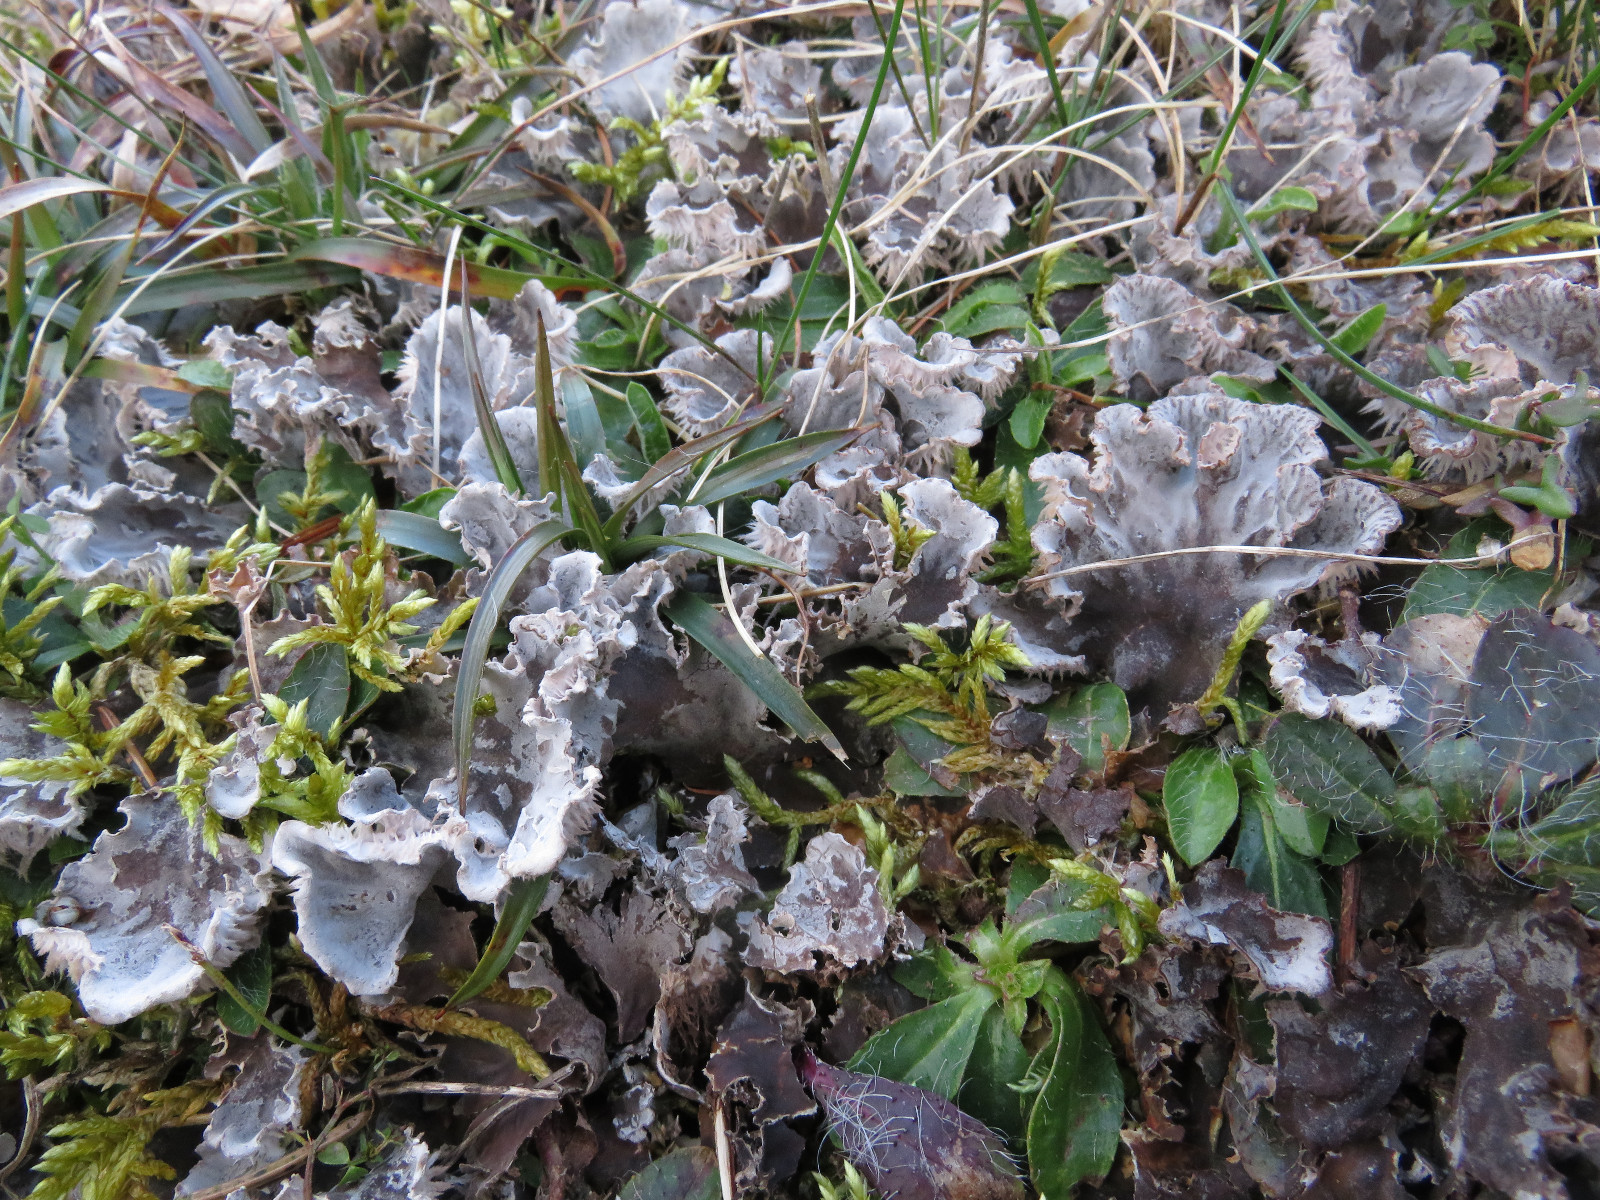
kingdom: Fungi
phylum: Ascomycota
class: Lecanoromycetes
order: Peltigerales
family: Peltigeraceae
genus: Peltigera
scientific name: Peltigera membranacea
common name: tynd skjoldlav
